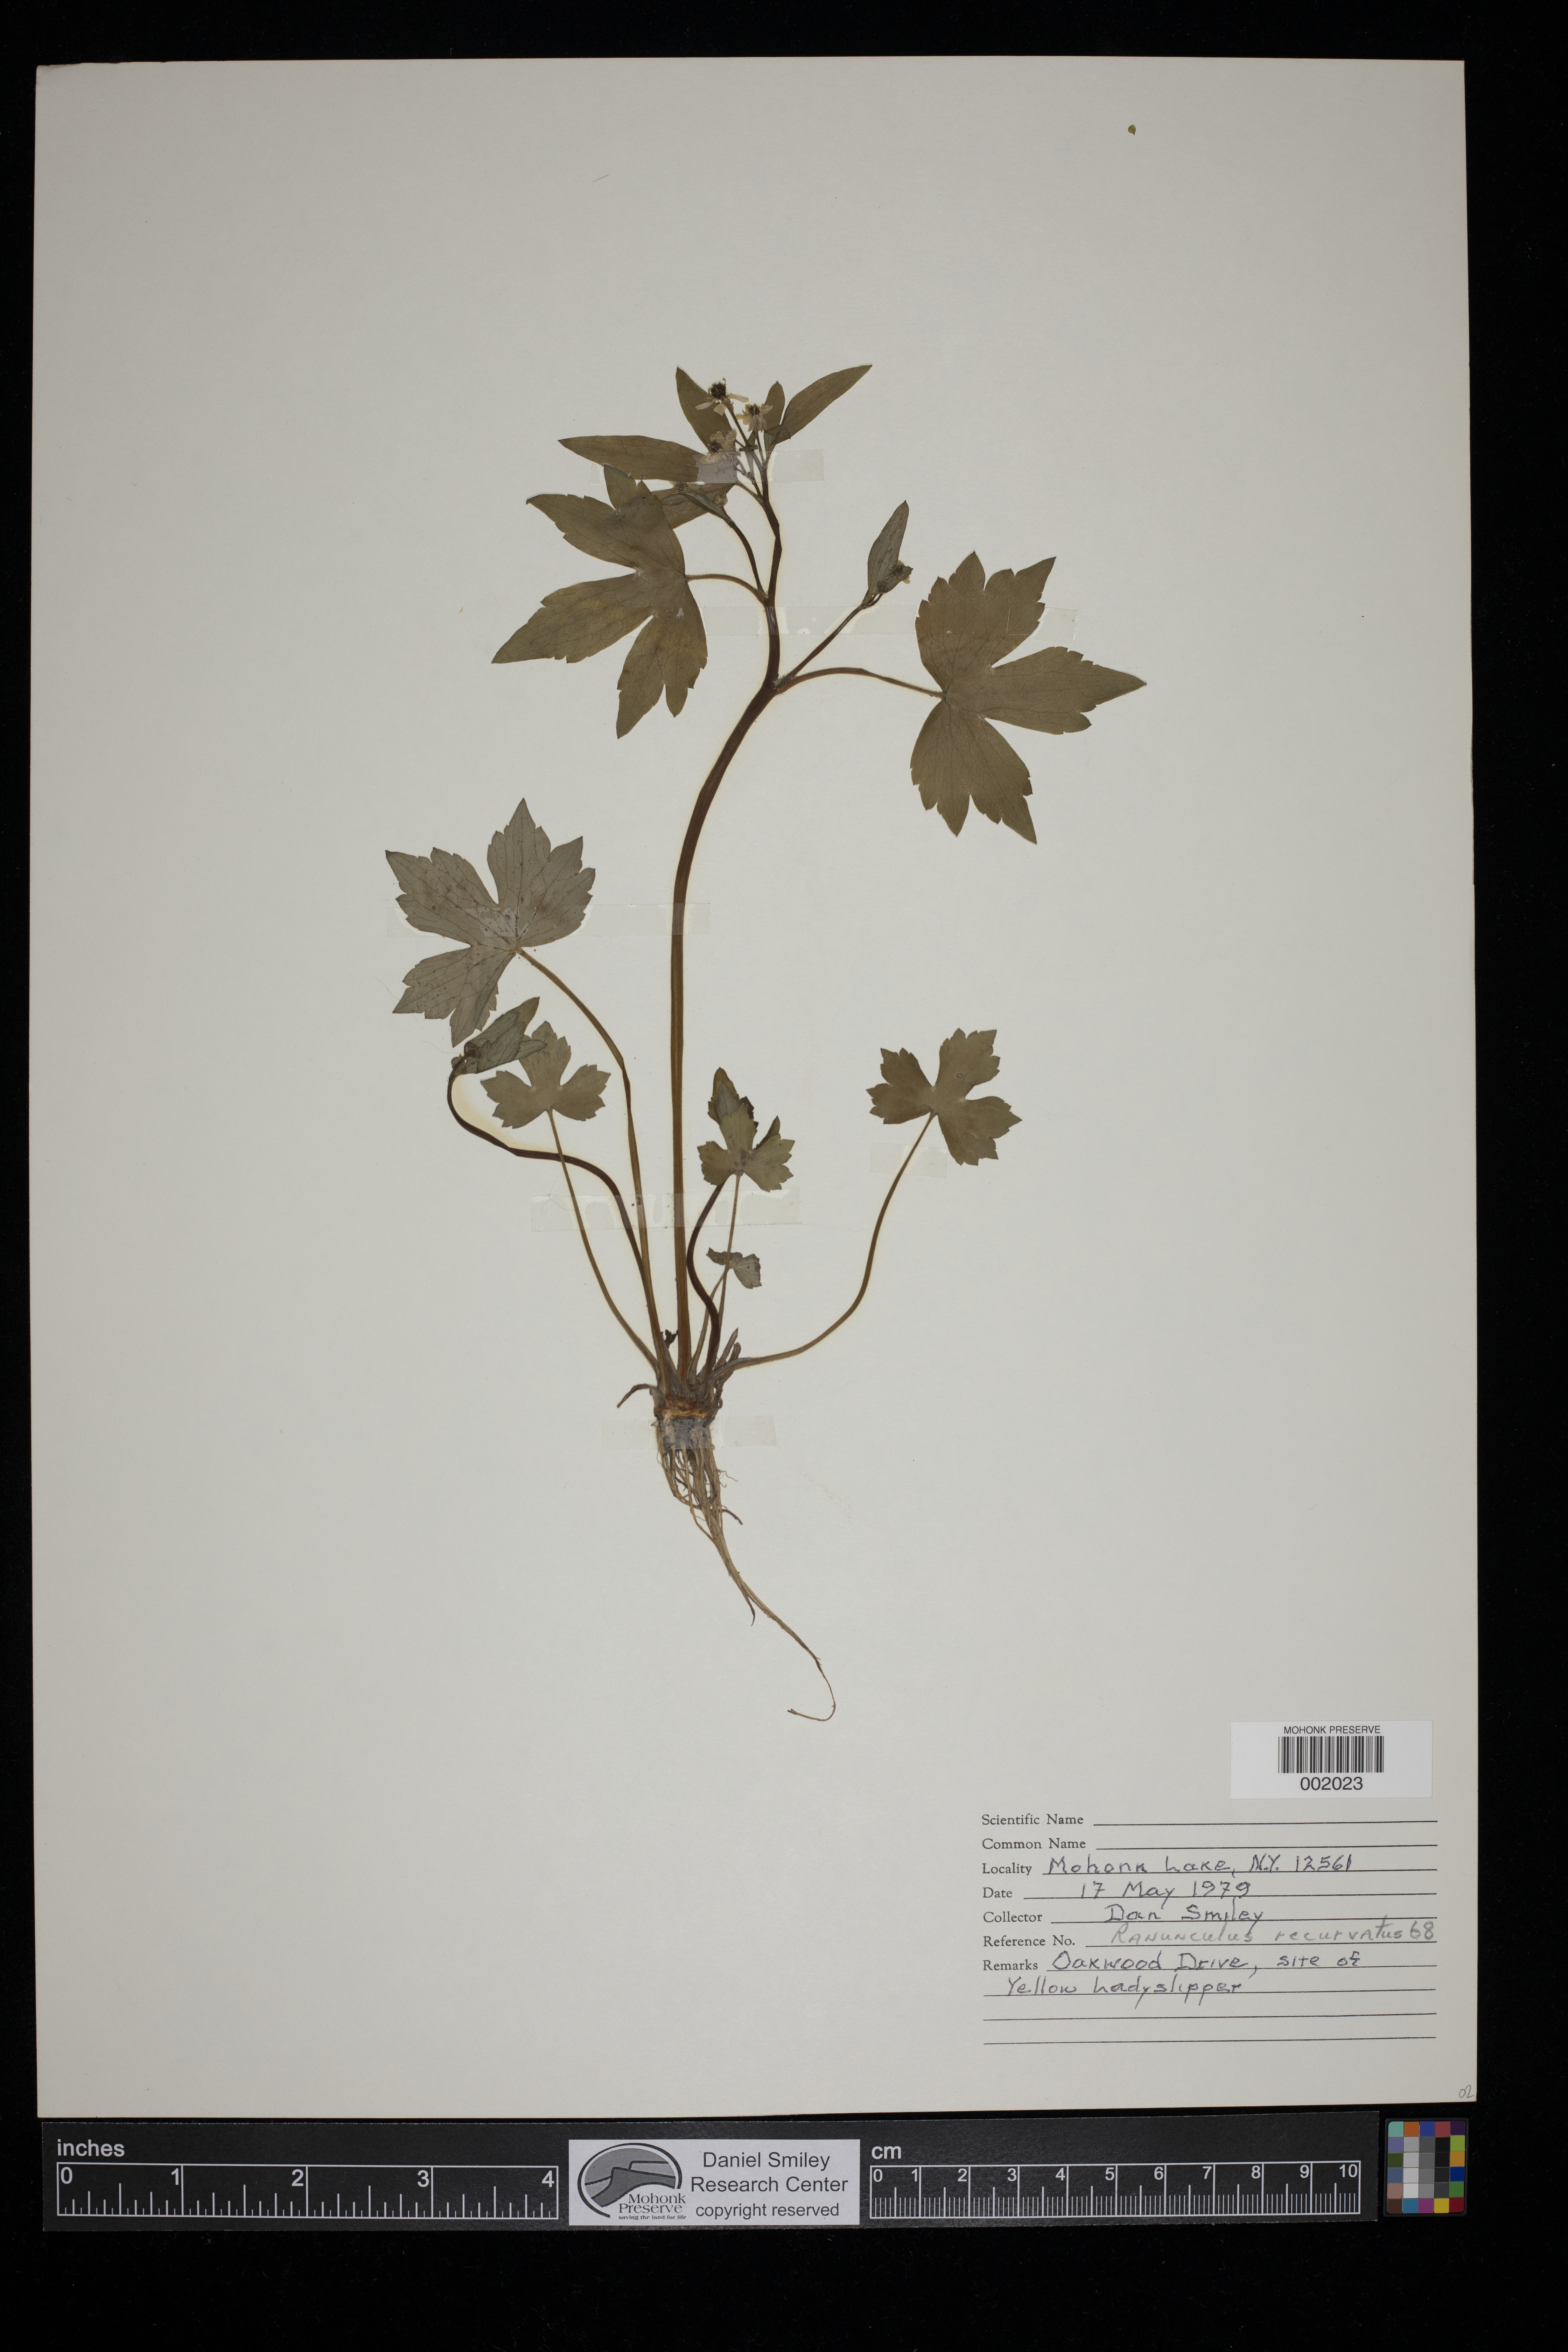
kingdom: Plantae
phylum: Tracheophyta
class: Magnoliopsida
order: Ranunculales
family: Ranunculaceae
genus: Ranunculus
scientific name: Ranunculus recurvatus
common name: Blisterwort
